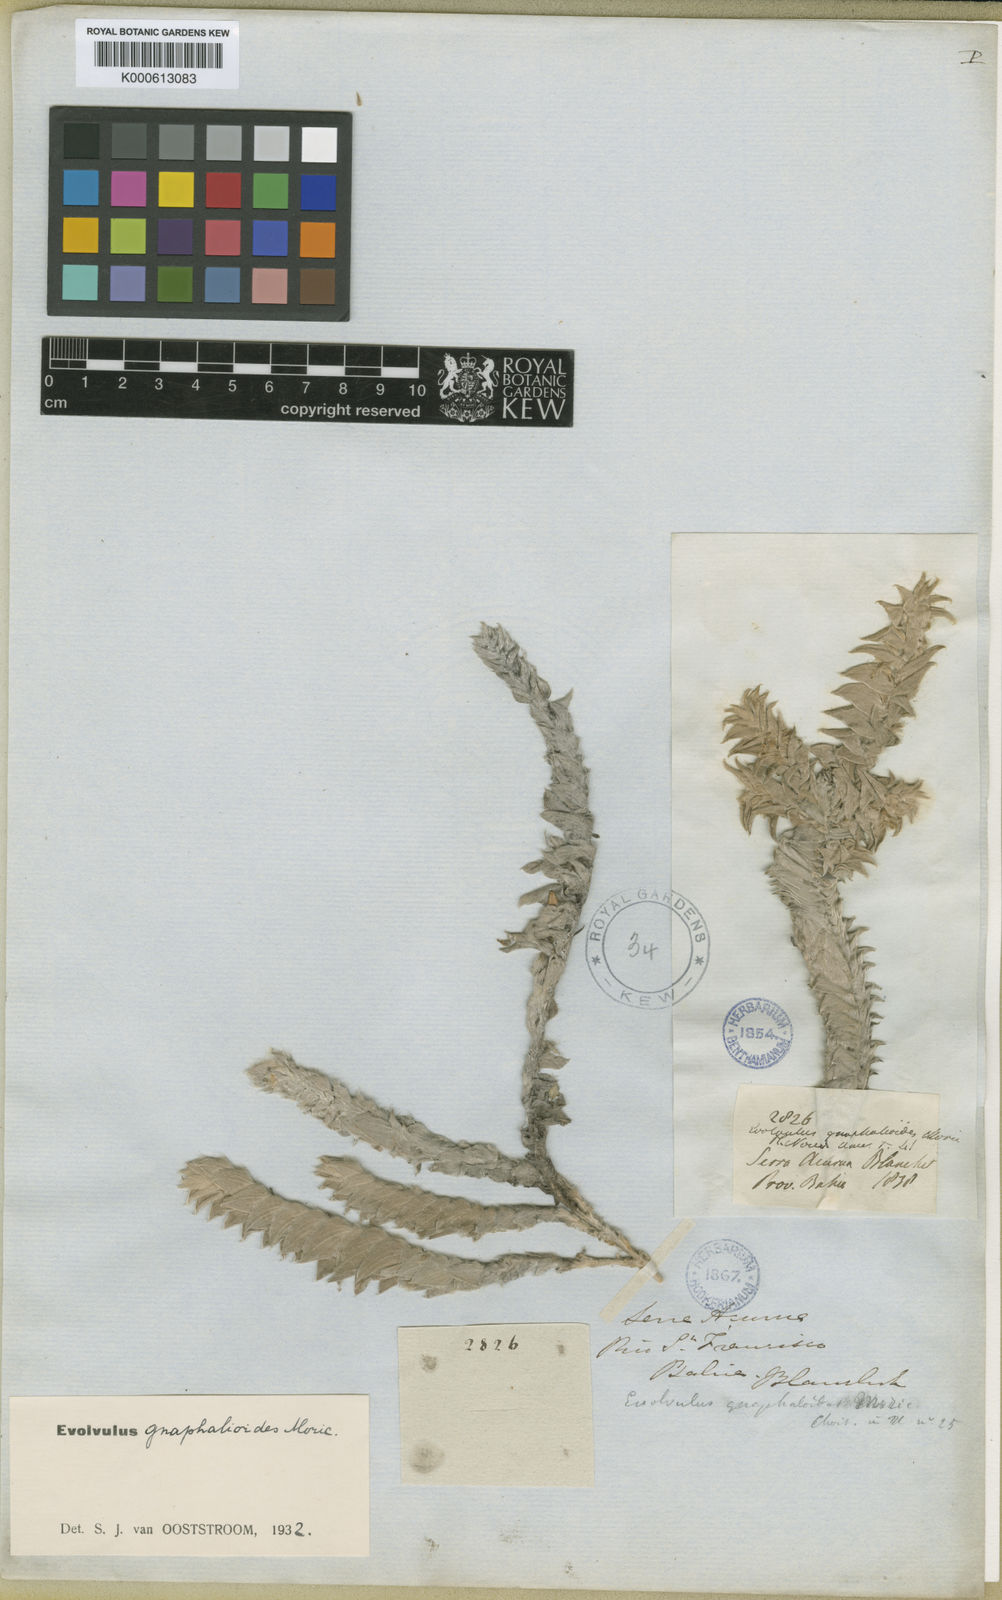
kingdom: Plantae
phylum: Tracheophyta
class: Magnoliopsida
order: Solanales
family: Convolvulaceae
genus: Evolvulus
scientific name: Evolvulus
